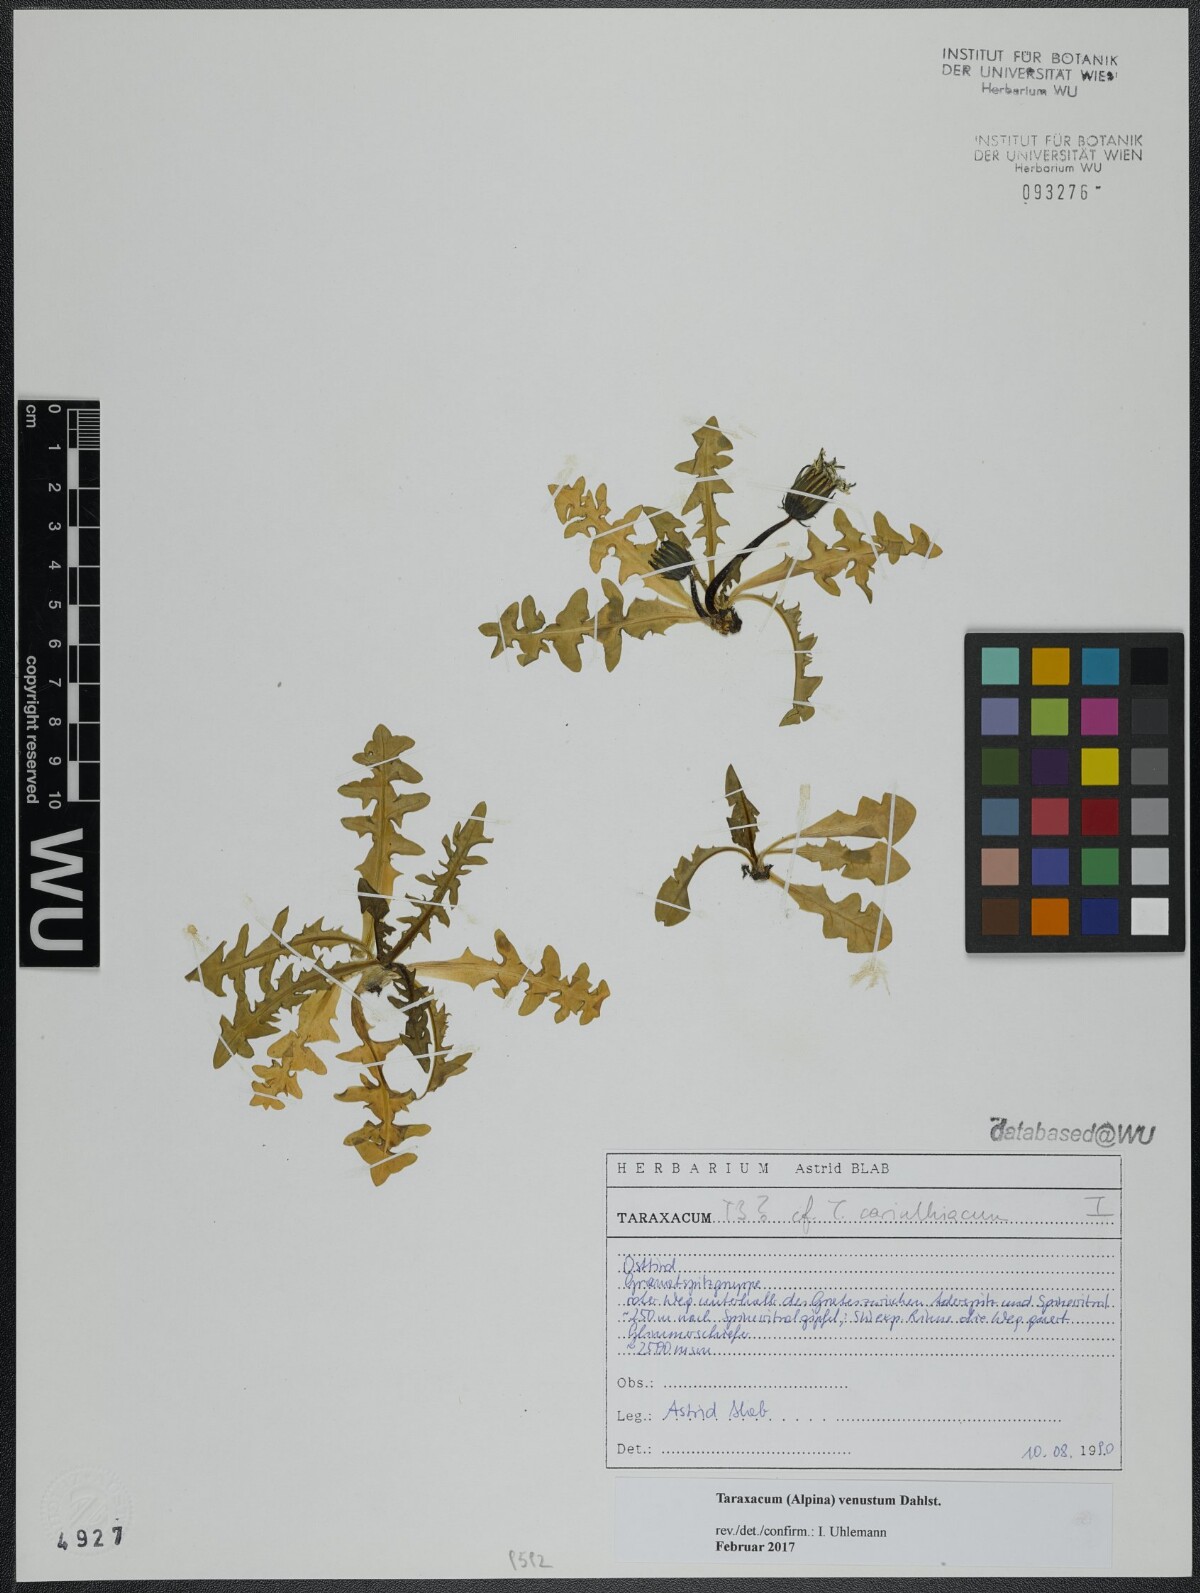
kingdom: Plantae
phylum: Tracheophyta
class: Magnoliopsida
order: Asterales
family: Asteraceae
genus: Taraxacum
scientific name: Taraxacum venustum
